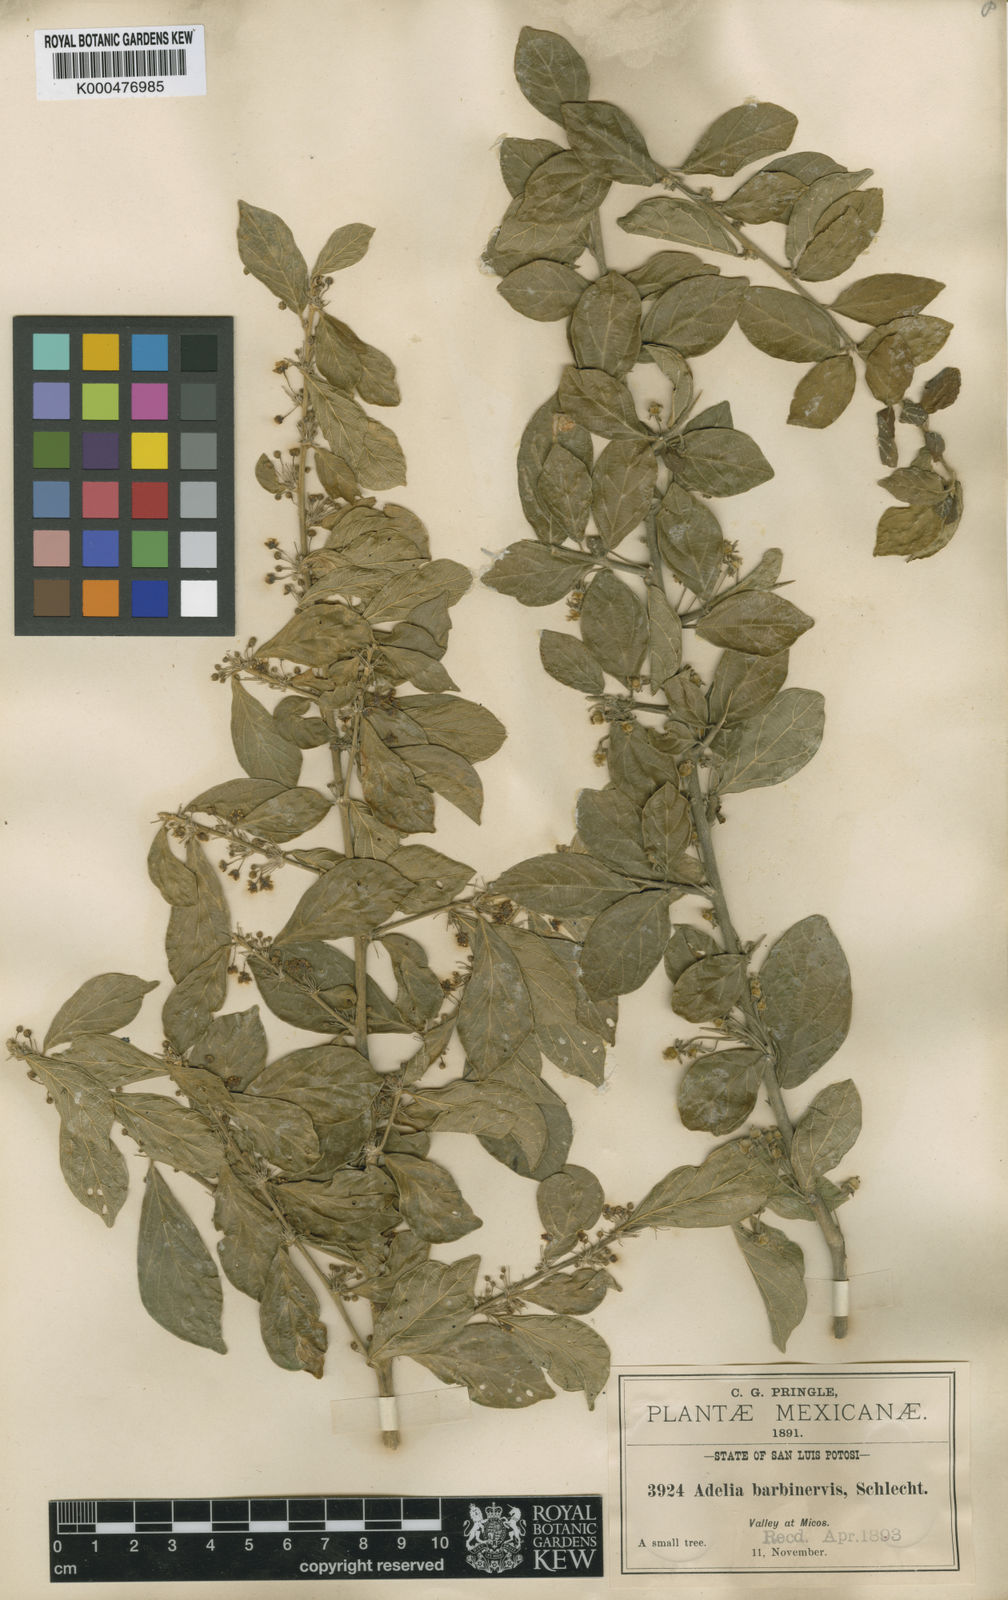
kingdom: Plantae
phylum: Tracheophyta
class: Magnoliopsida
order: Malpighiales
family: Euphorbiaceae
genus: Adelia
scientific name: Adelia barbinervis
